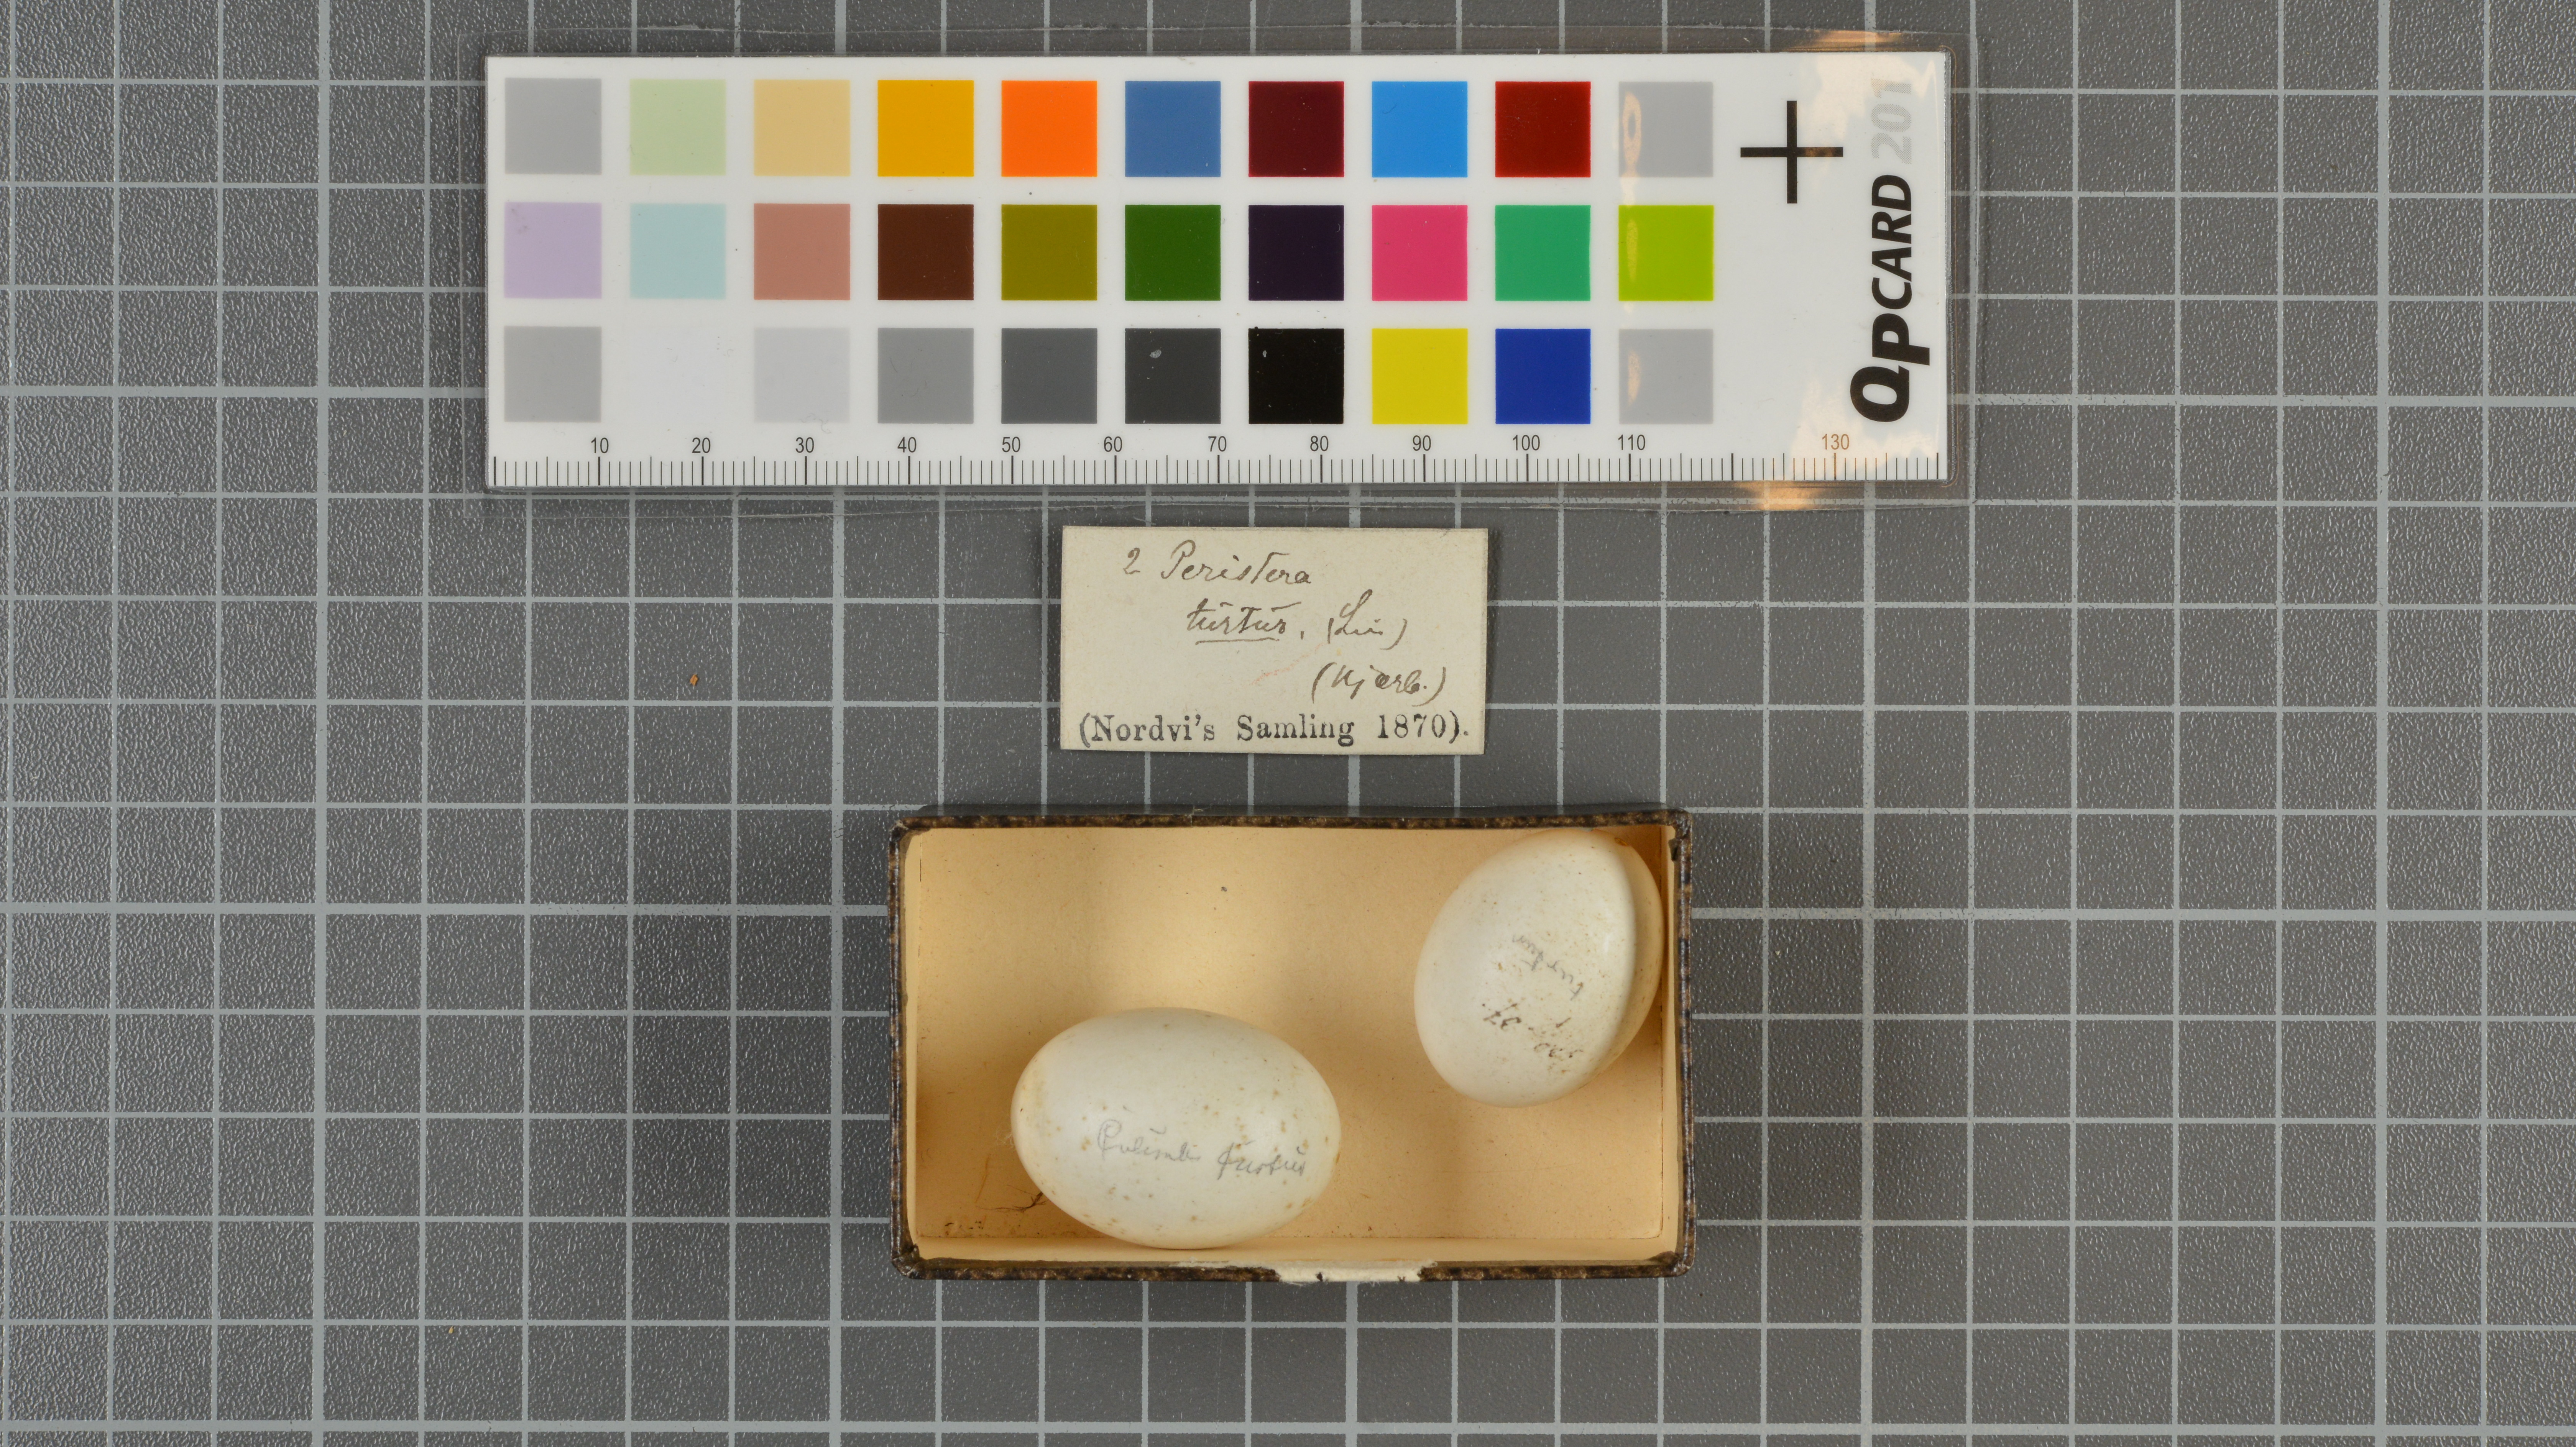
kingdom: Animalia
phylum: Chordata
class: Aves
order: Columbiformes
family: Columbidae
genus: Streptopelia
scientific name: Streptopelia turtur
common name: European turtle dove
